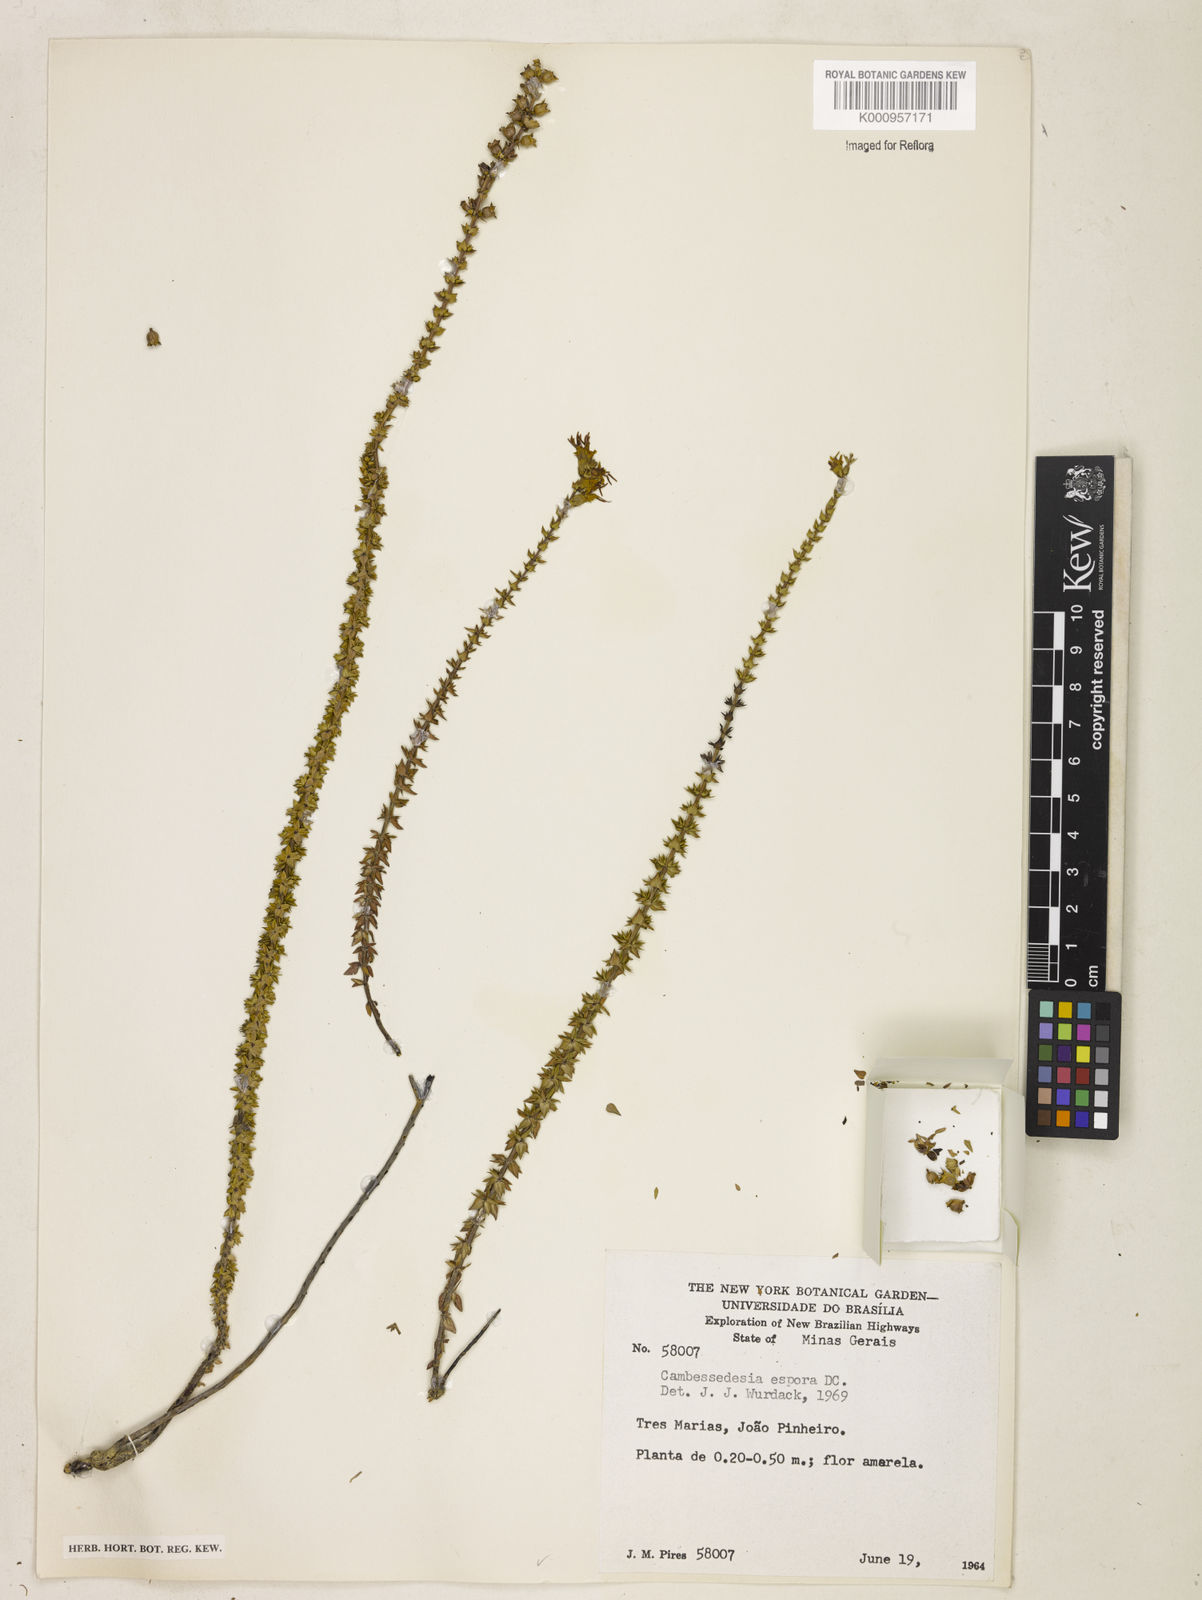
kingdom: Plantae
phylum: Tracheophyta
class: Magnoliopsida
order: Myrtales
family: Melastomataceae
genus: Cambessedesia
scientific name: Cambessedesia espora
